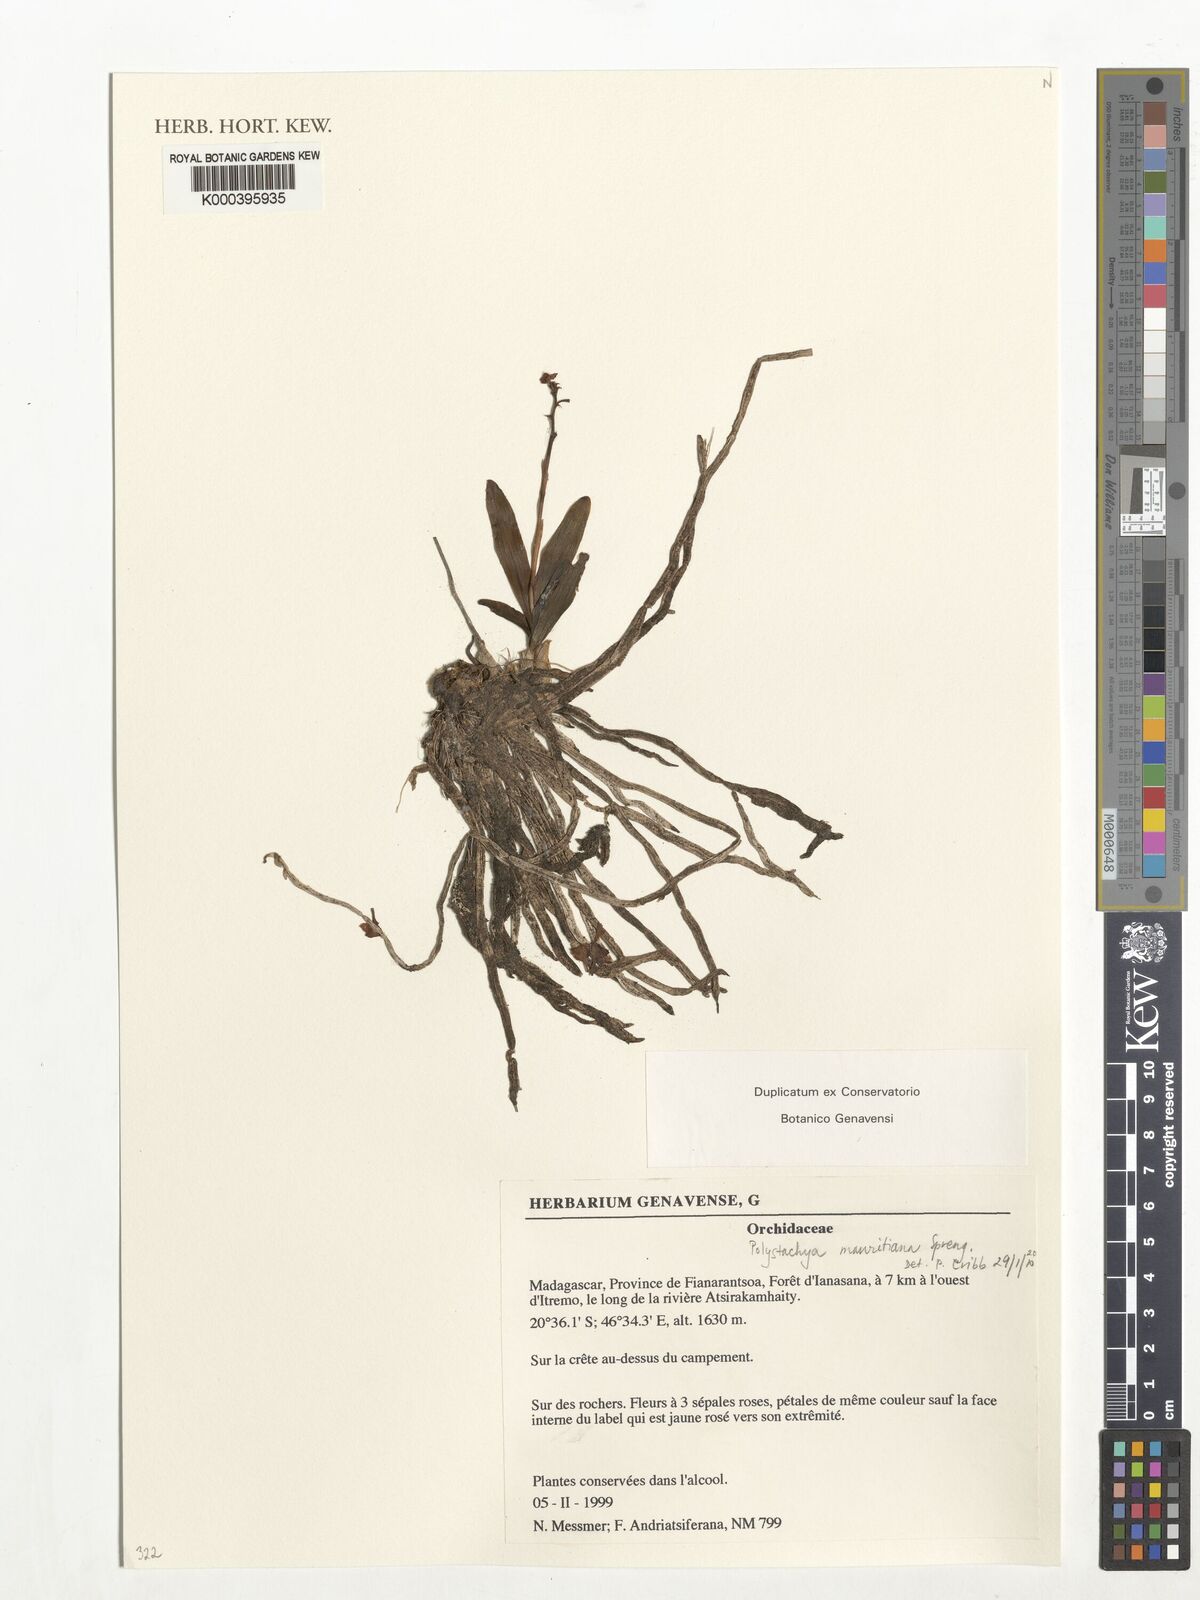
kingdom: Plantae
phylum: Tracheophyta
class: Liliopsida
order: Asparagales
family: Orchidaceae
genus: Polystachya
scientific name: Polystachya perrieri
